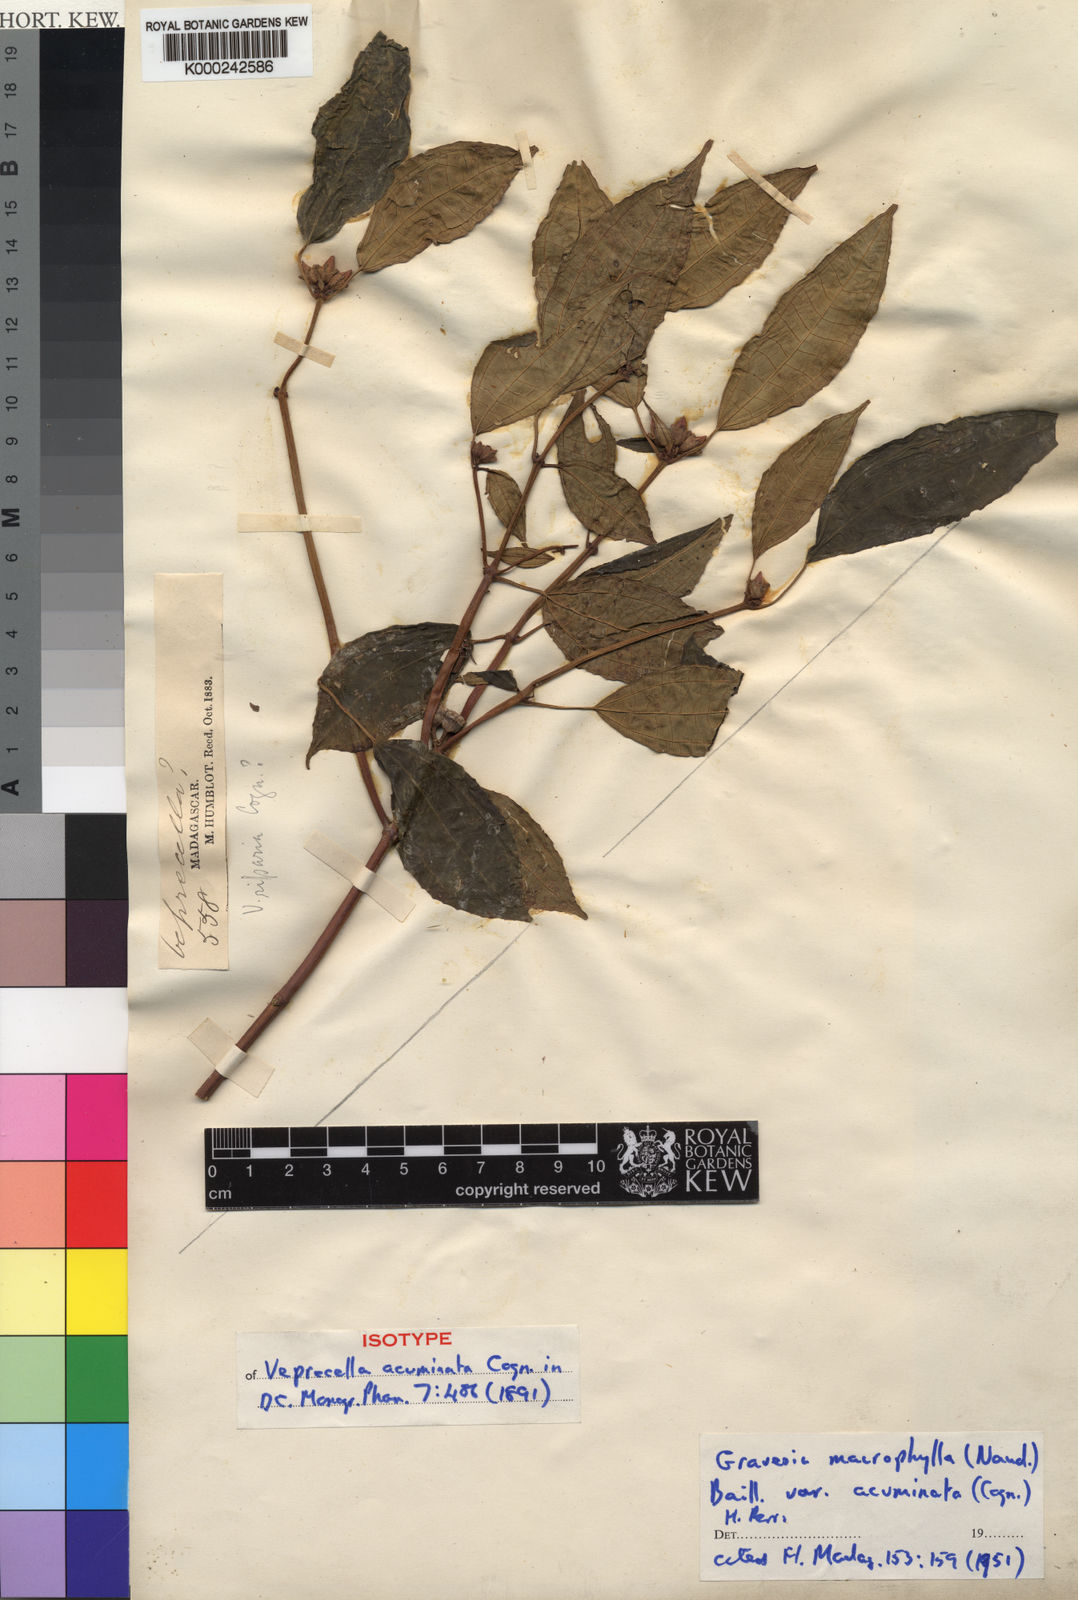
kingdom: Plantae
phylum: Tracheophyta
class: Magnoliopsida
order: Myrtales
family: Melastomataceae
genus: Gravesia
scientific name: Gravesia
